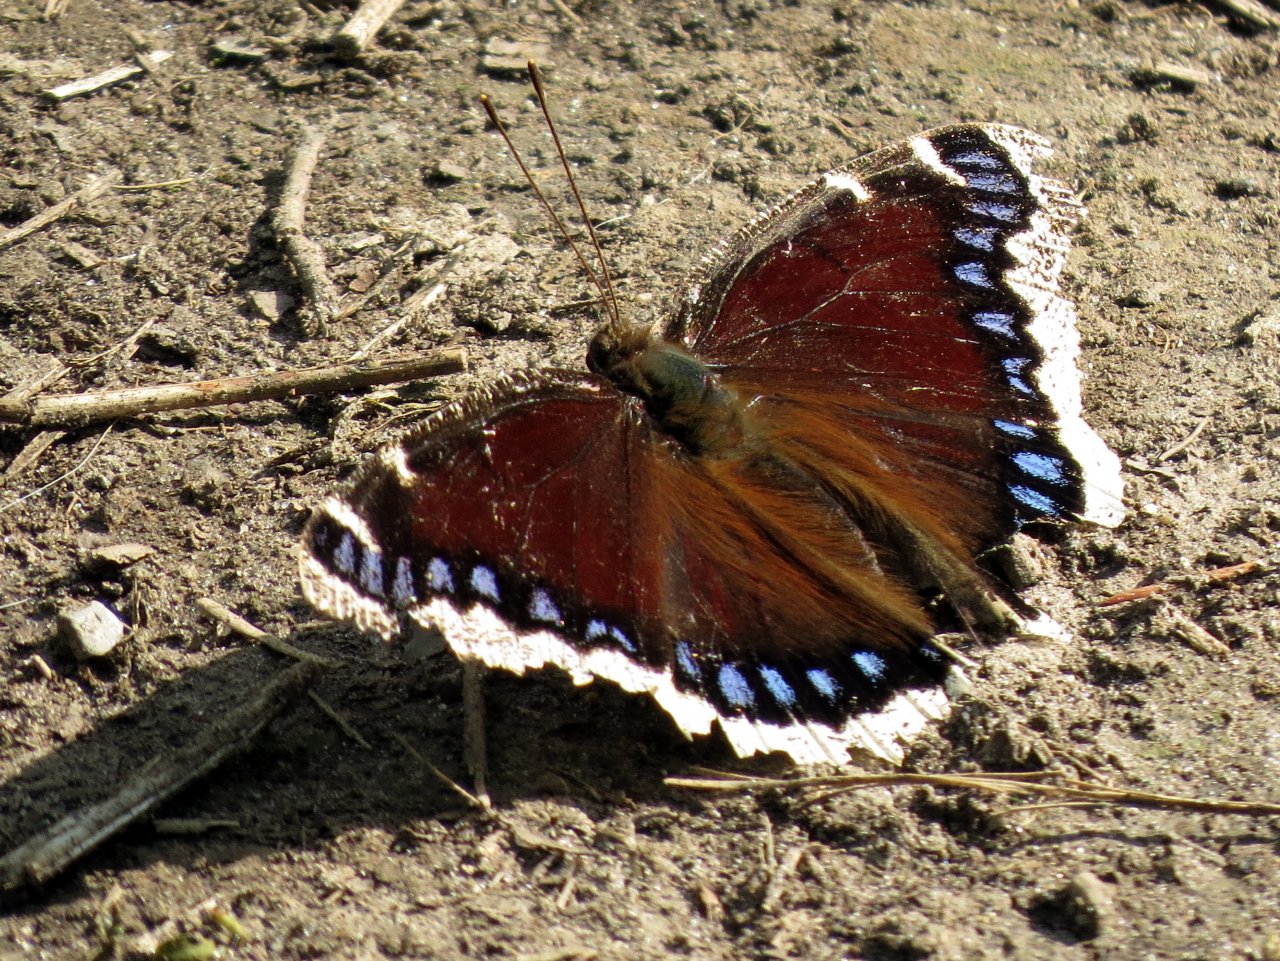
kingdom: Animalia
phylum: Arthropoda
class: Insecta
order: Lepidoptera
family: Nymphalidae
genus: Nymphalis
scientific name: Nymphalis antiopa
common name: Mourning Cloak
